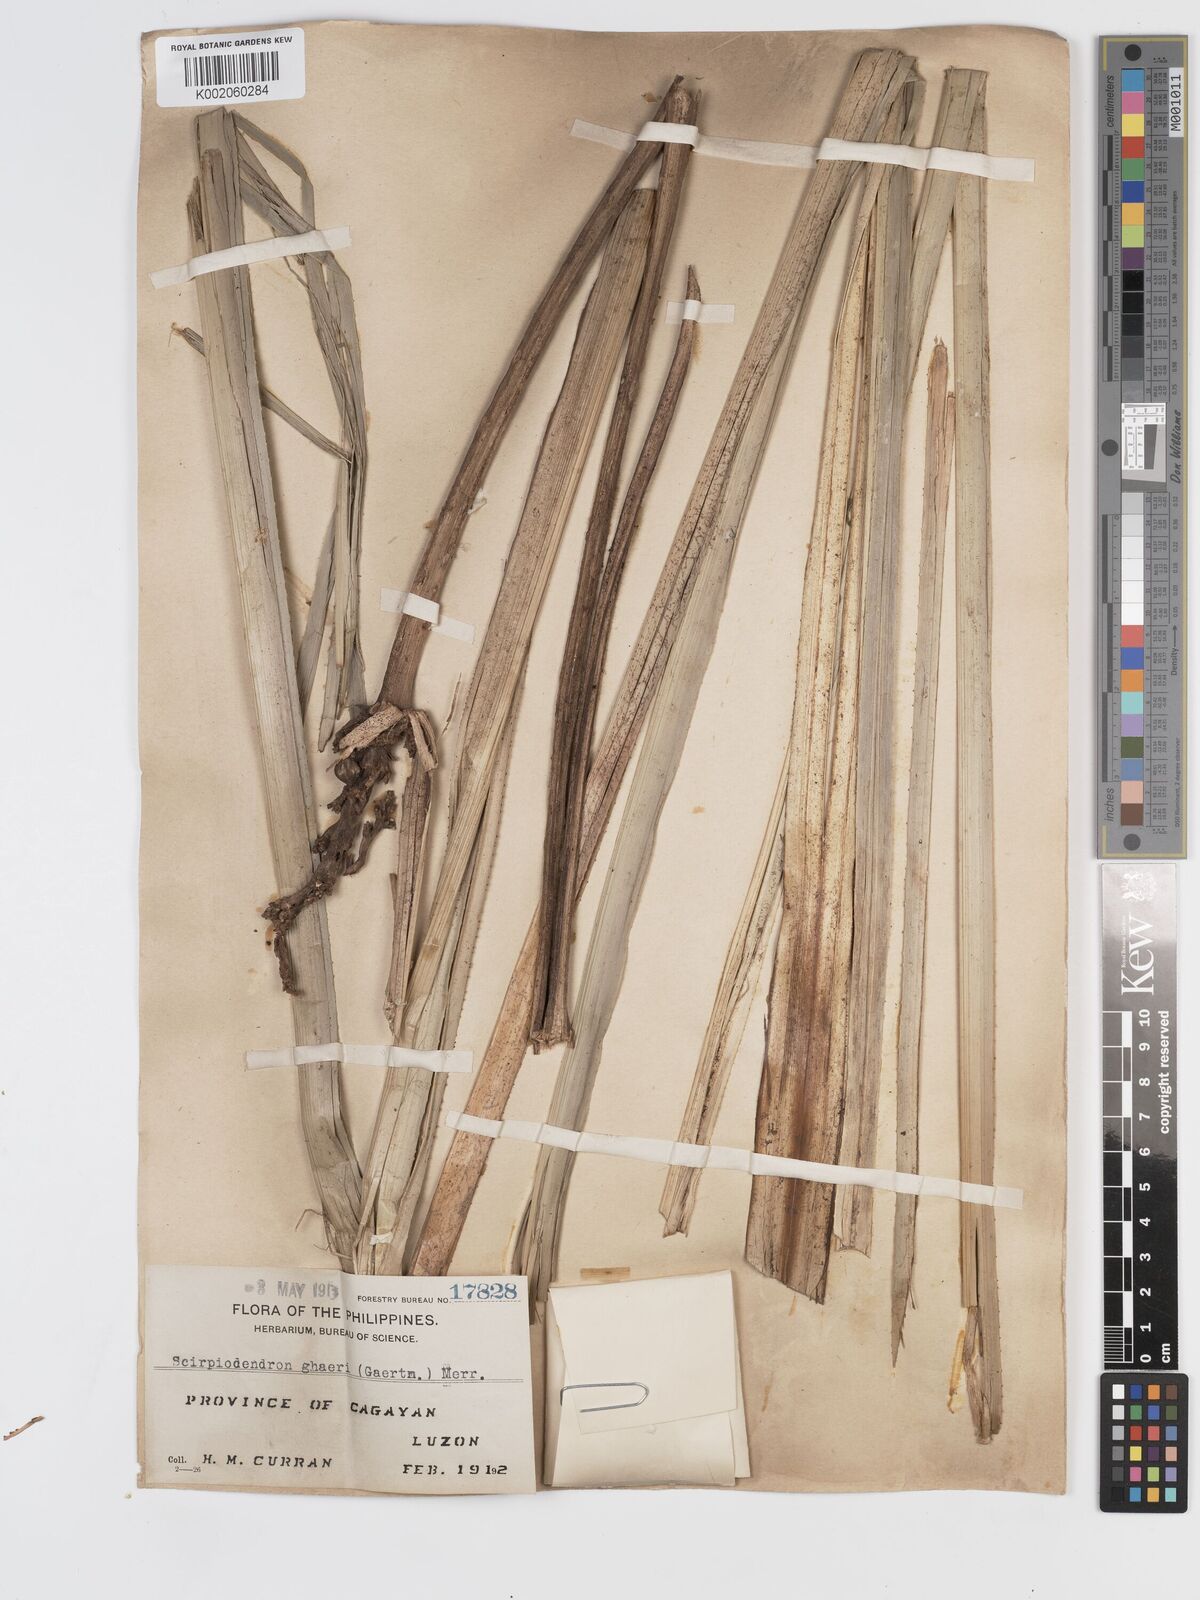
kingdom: Plantae
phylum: Tracheophyta
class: Liliopsida
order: Poales
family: Cyperaceae
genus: Scirpodendron
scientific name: Scirpodendron ghaeri
